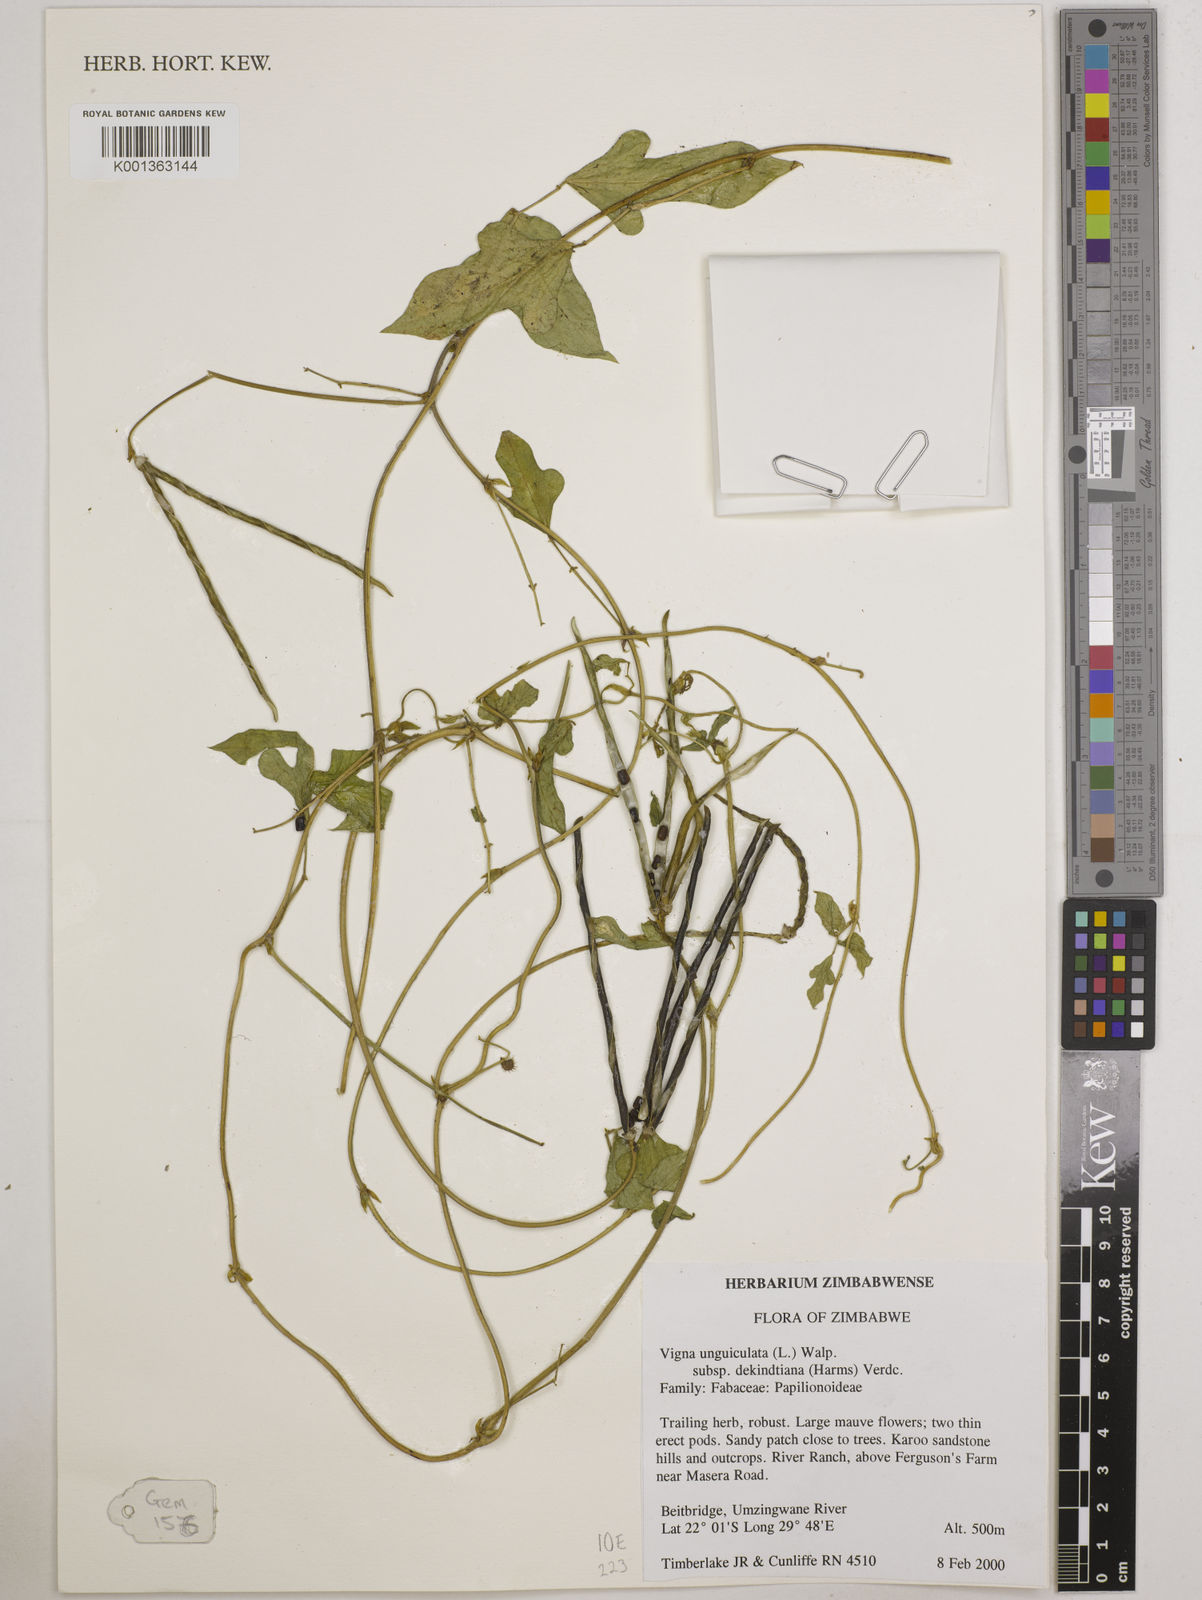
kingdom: Plantae
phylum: Tracheophyta
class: Magnoliopsida
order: Fabales
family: Fabaceae
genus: Vigna
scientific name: Vigna
